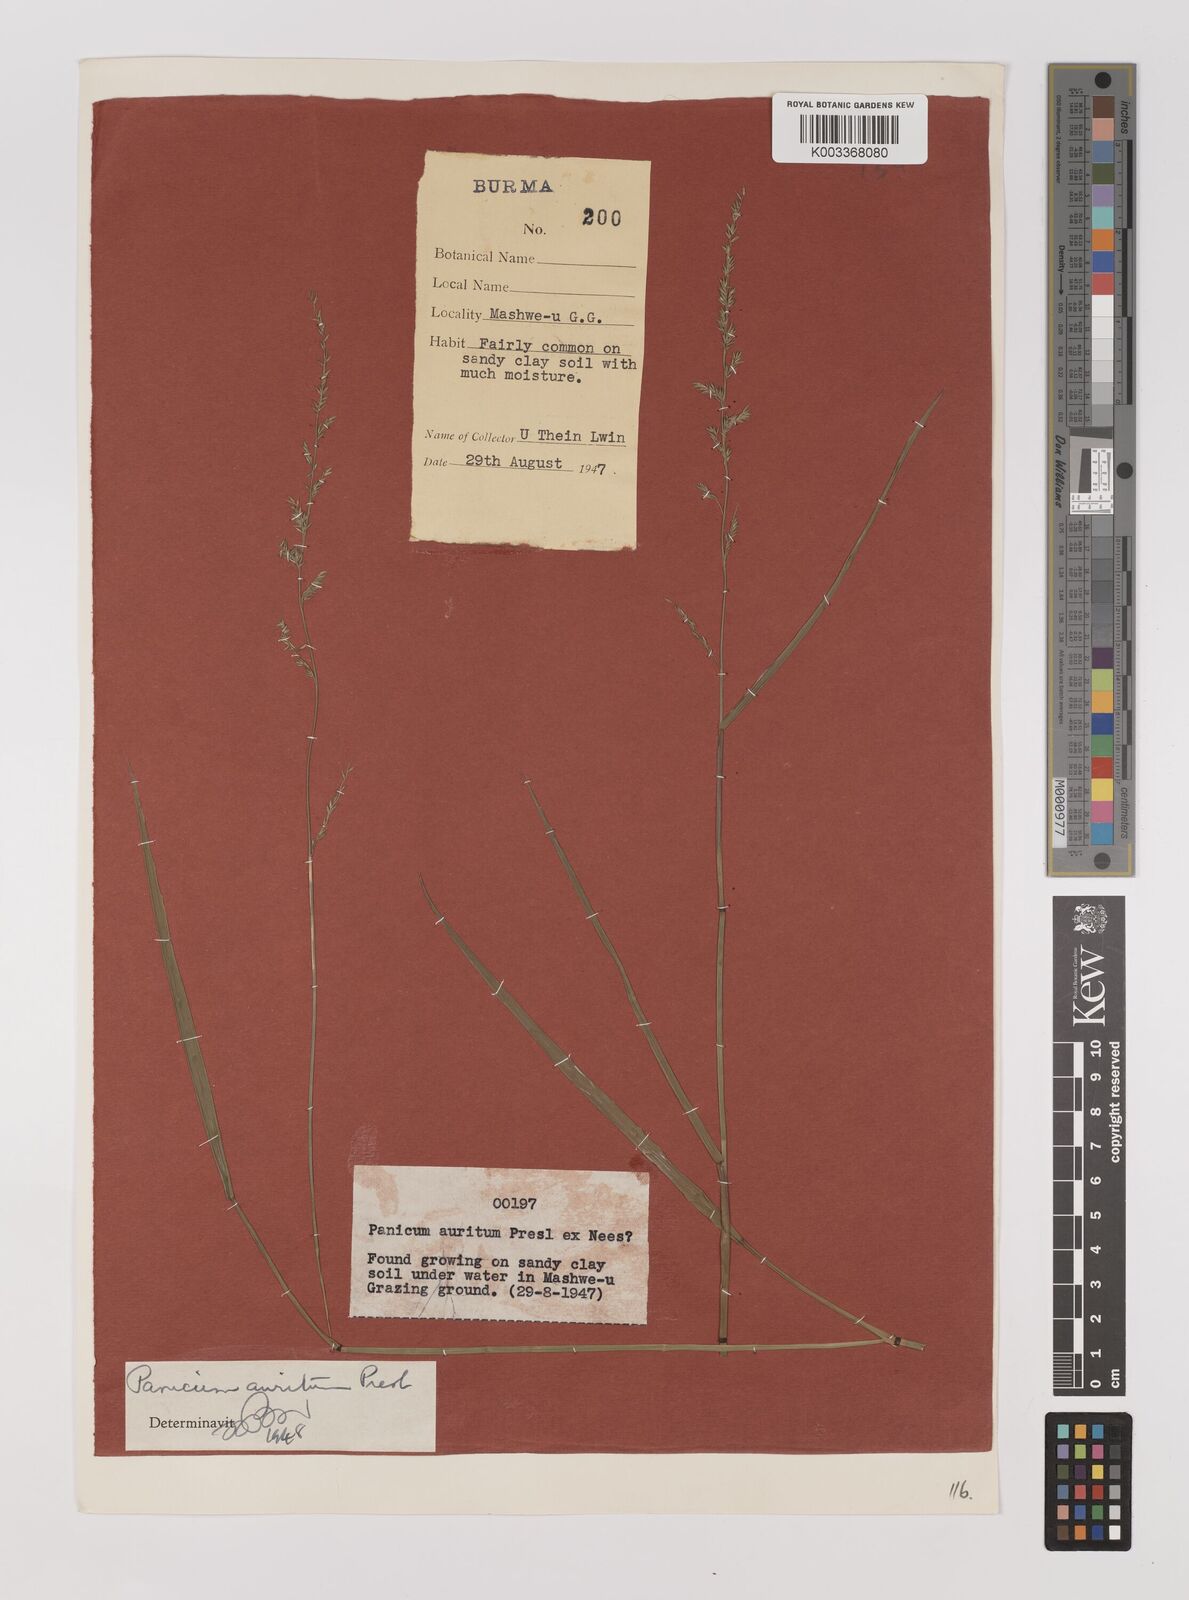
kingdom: Plantae
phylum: Tracheophyta
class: Liliopsida
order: Poales
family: Poaceae
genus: Hymenachne
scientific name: Hymenachne aurita
